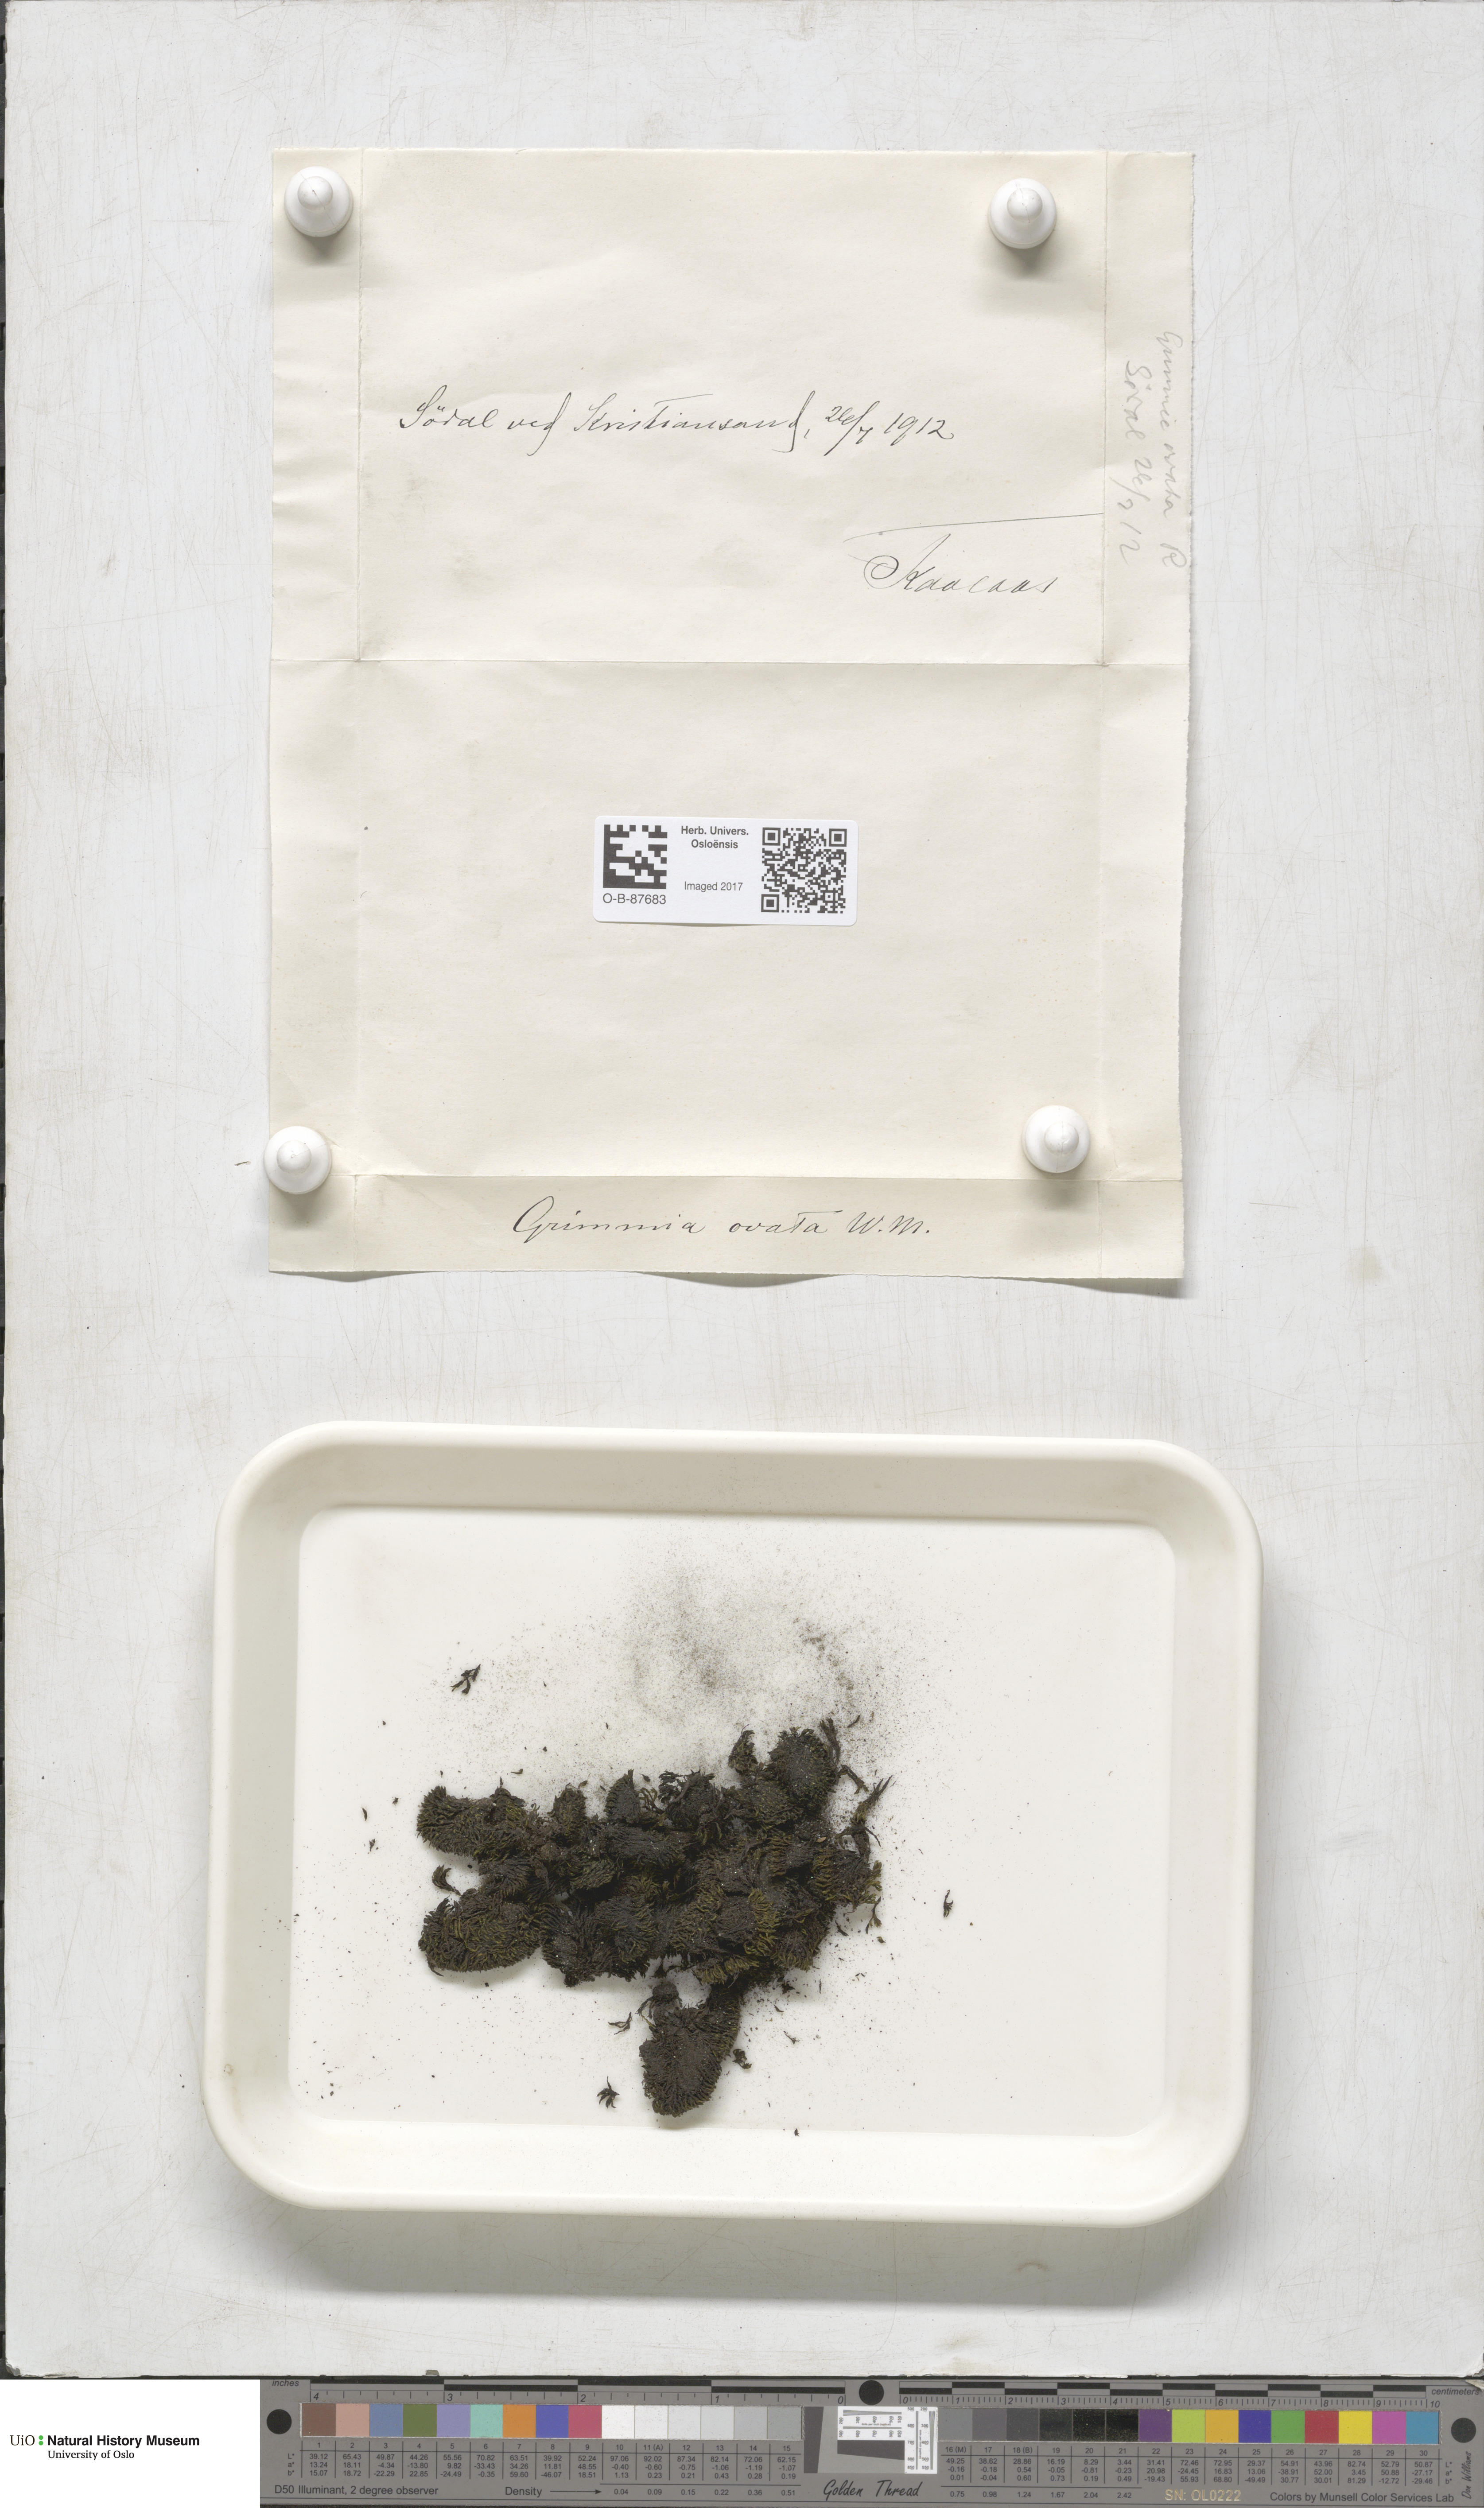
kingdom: Plantae
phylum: Bryophyta
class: Bryopsida
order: Grimmiales
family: Grimmiaceae
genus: Grimmia
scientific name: Grimmia ovalis
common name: Oval grimmia
